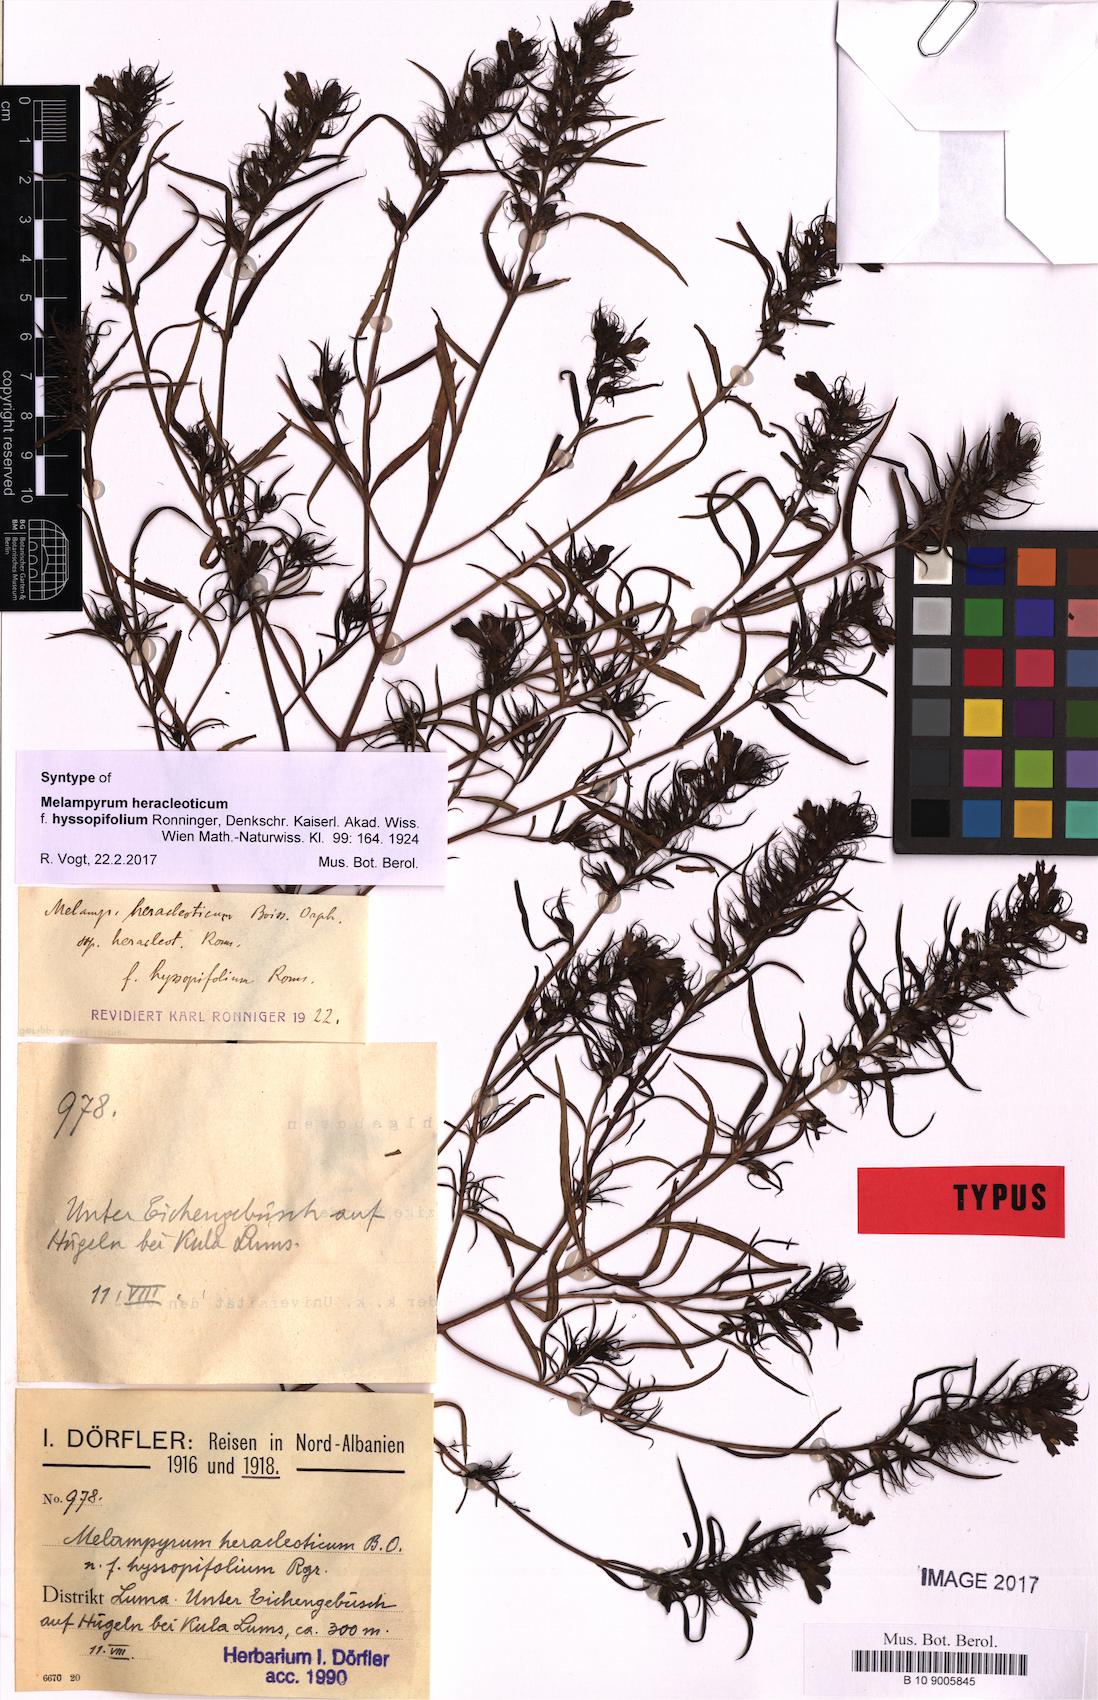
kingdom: Plantae
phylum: Tracheophyta
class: Magnoliopsida
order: Lamiales
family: Orobanchaceae
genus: Melampyrum
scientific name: Melampyrum heracleoticum
